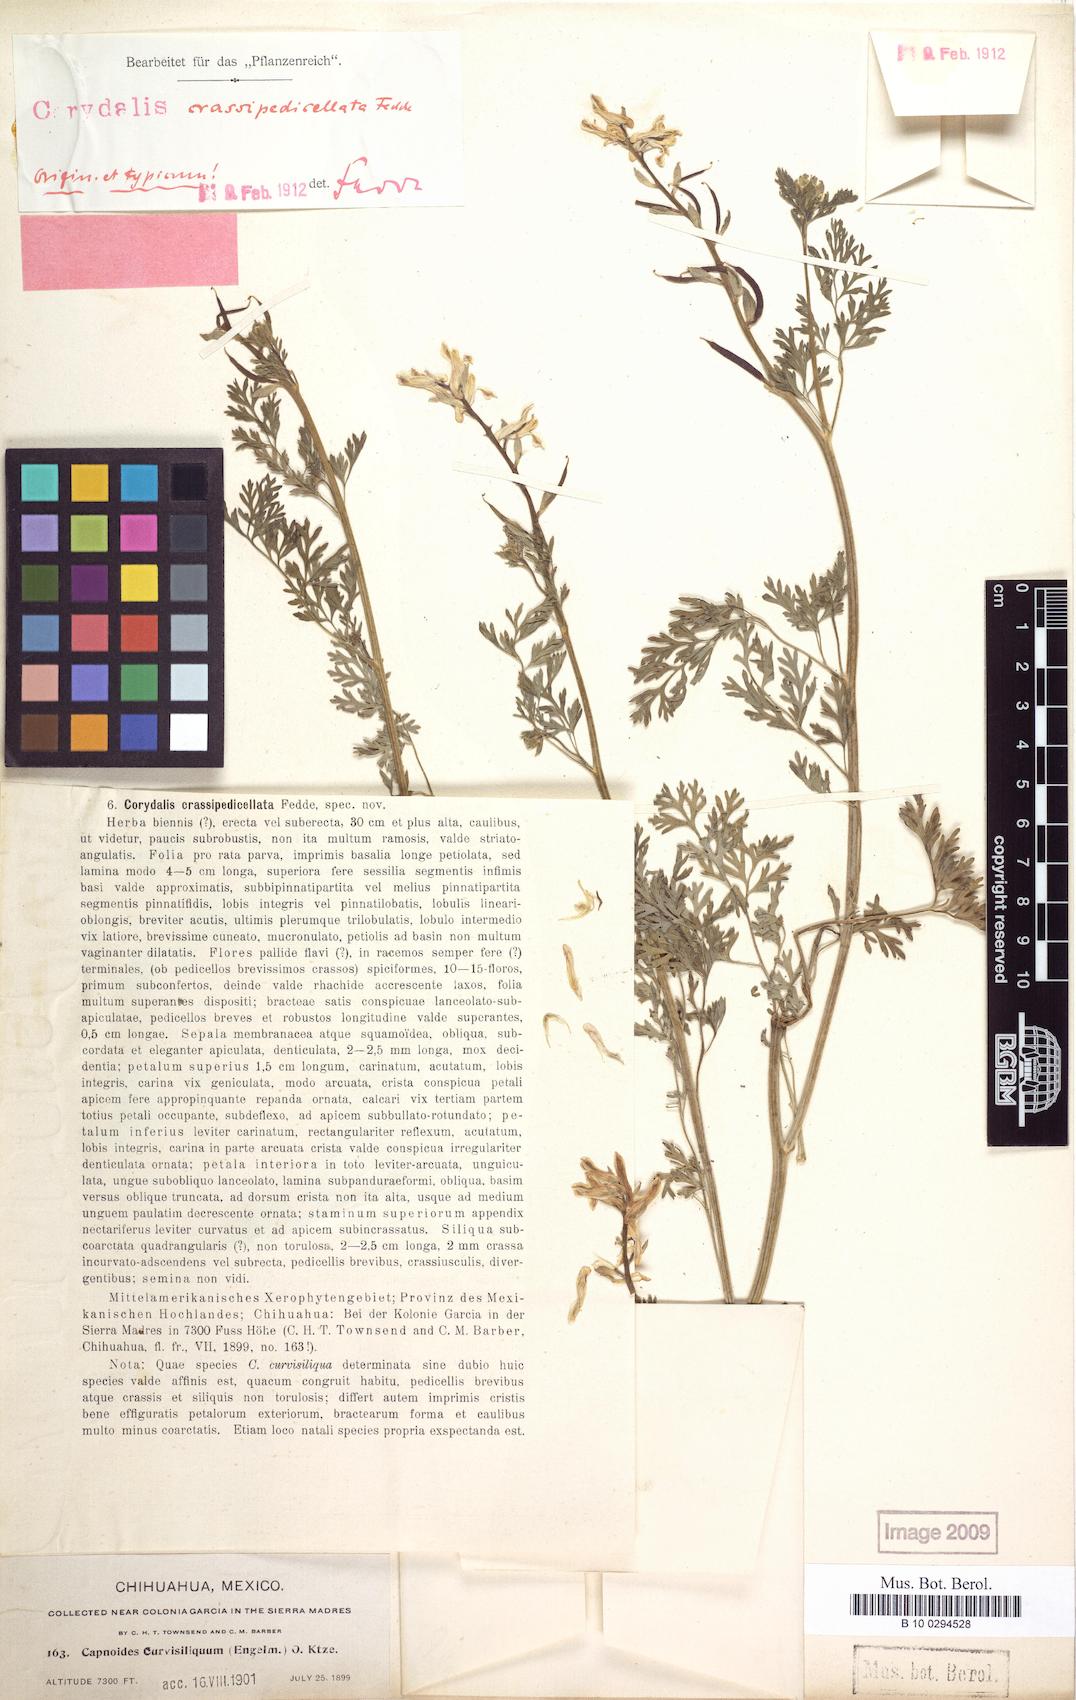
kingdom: Plantae
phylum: Tracheophyta
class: Magnoliopsida
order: Ranunculales
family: Papaveraceae
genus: Corydalis
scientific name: Corydalis curvisiliqua
